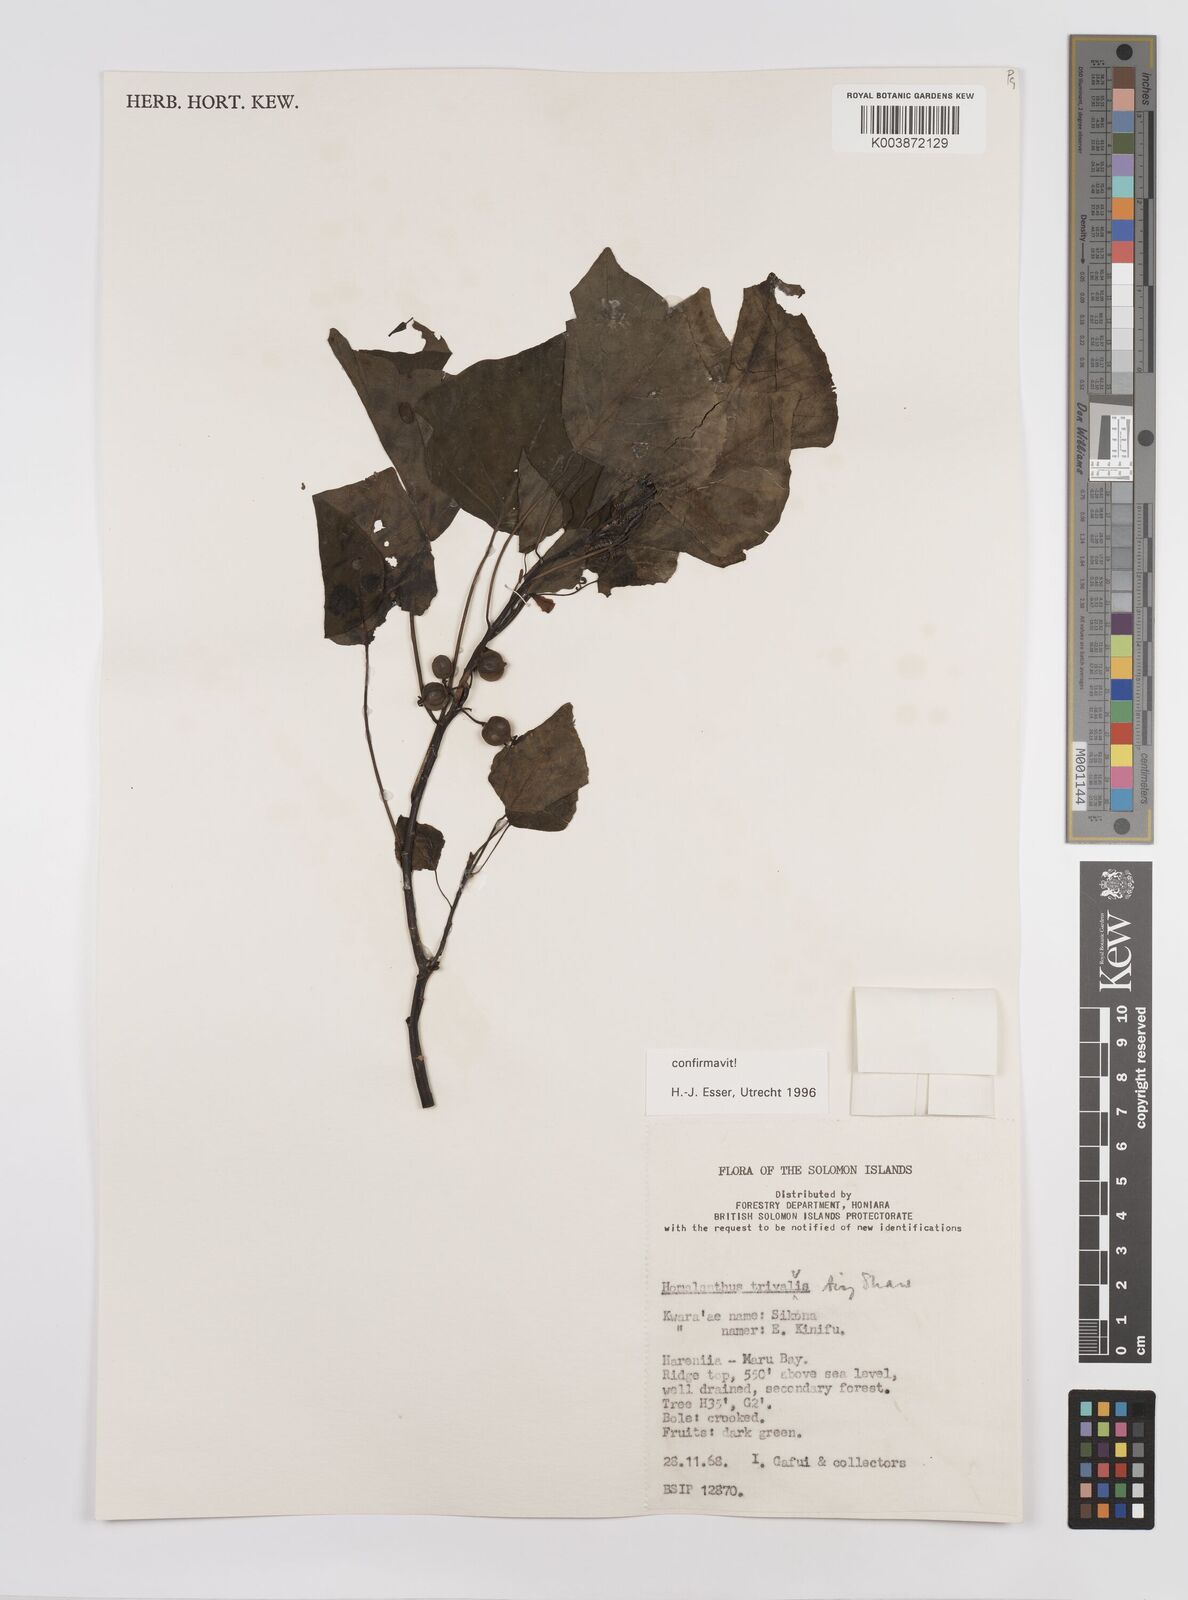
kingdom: Plantae
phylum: Tracheophyta
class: Magnoliopsida
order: Malpighiales
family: Euphorbiaceae
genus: Homalanthus
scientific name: Homalanthus trivalvis
